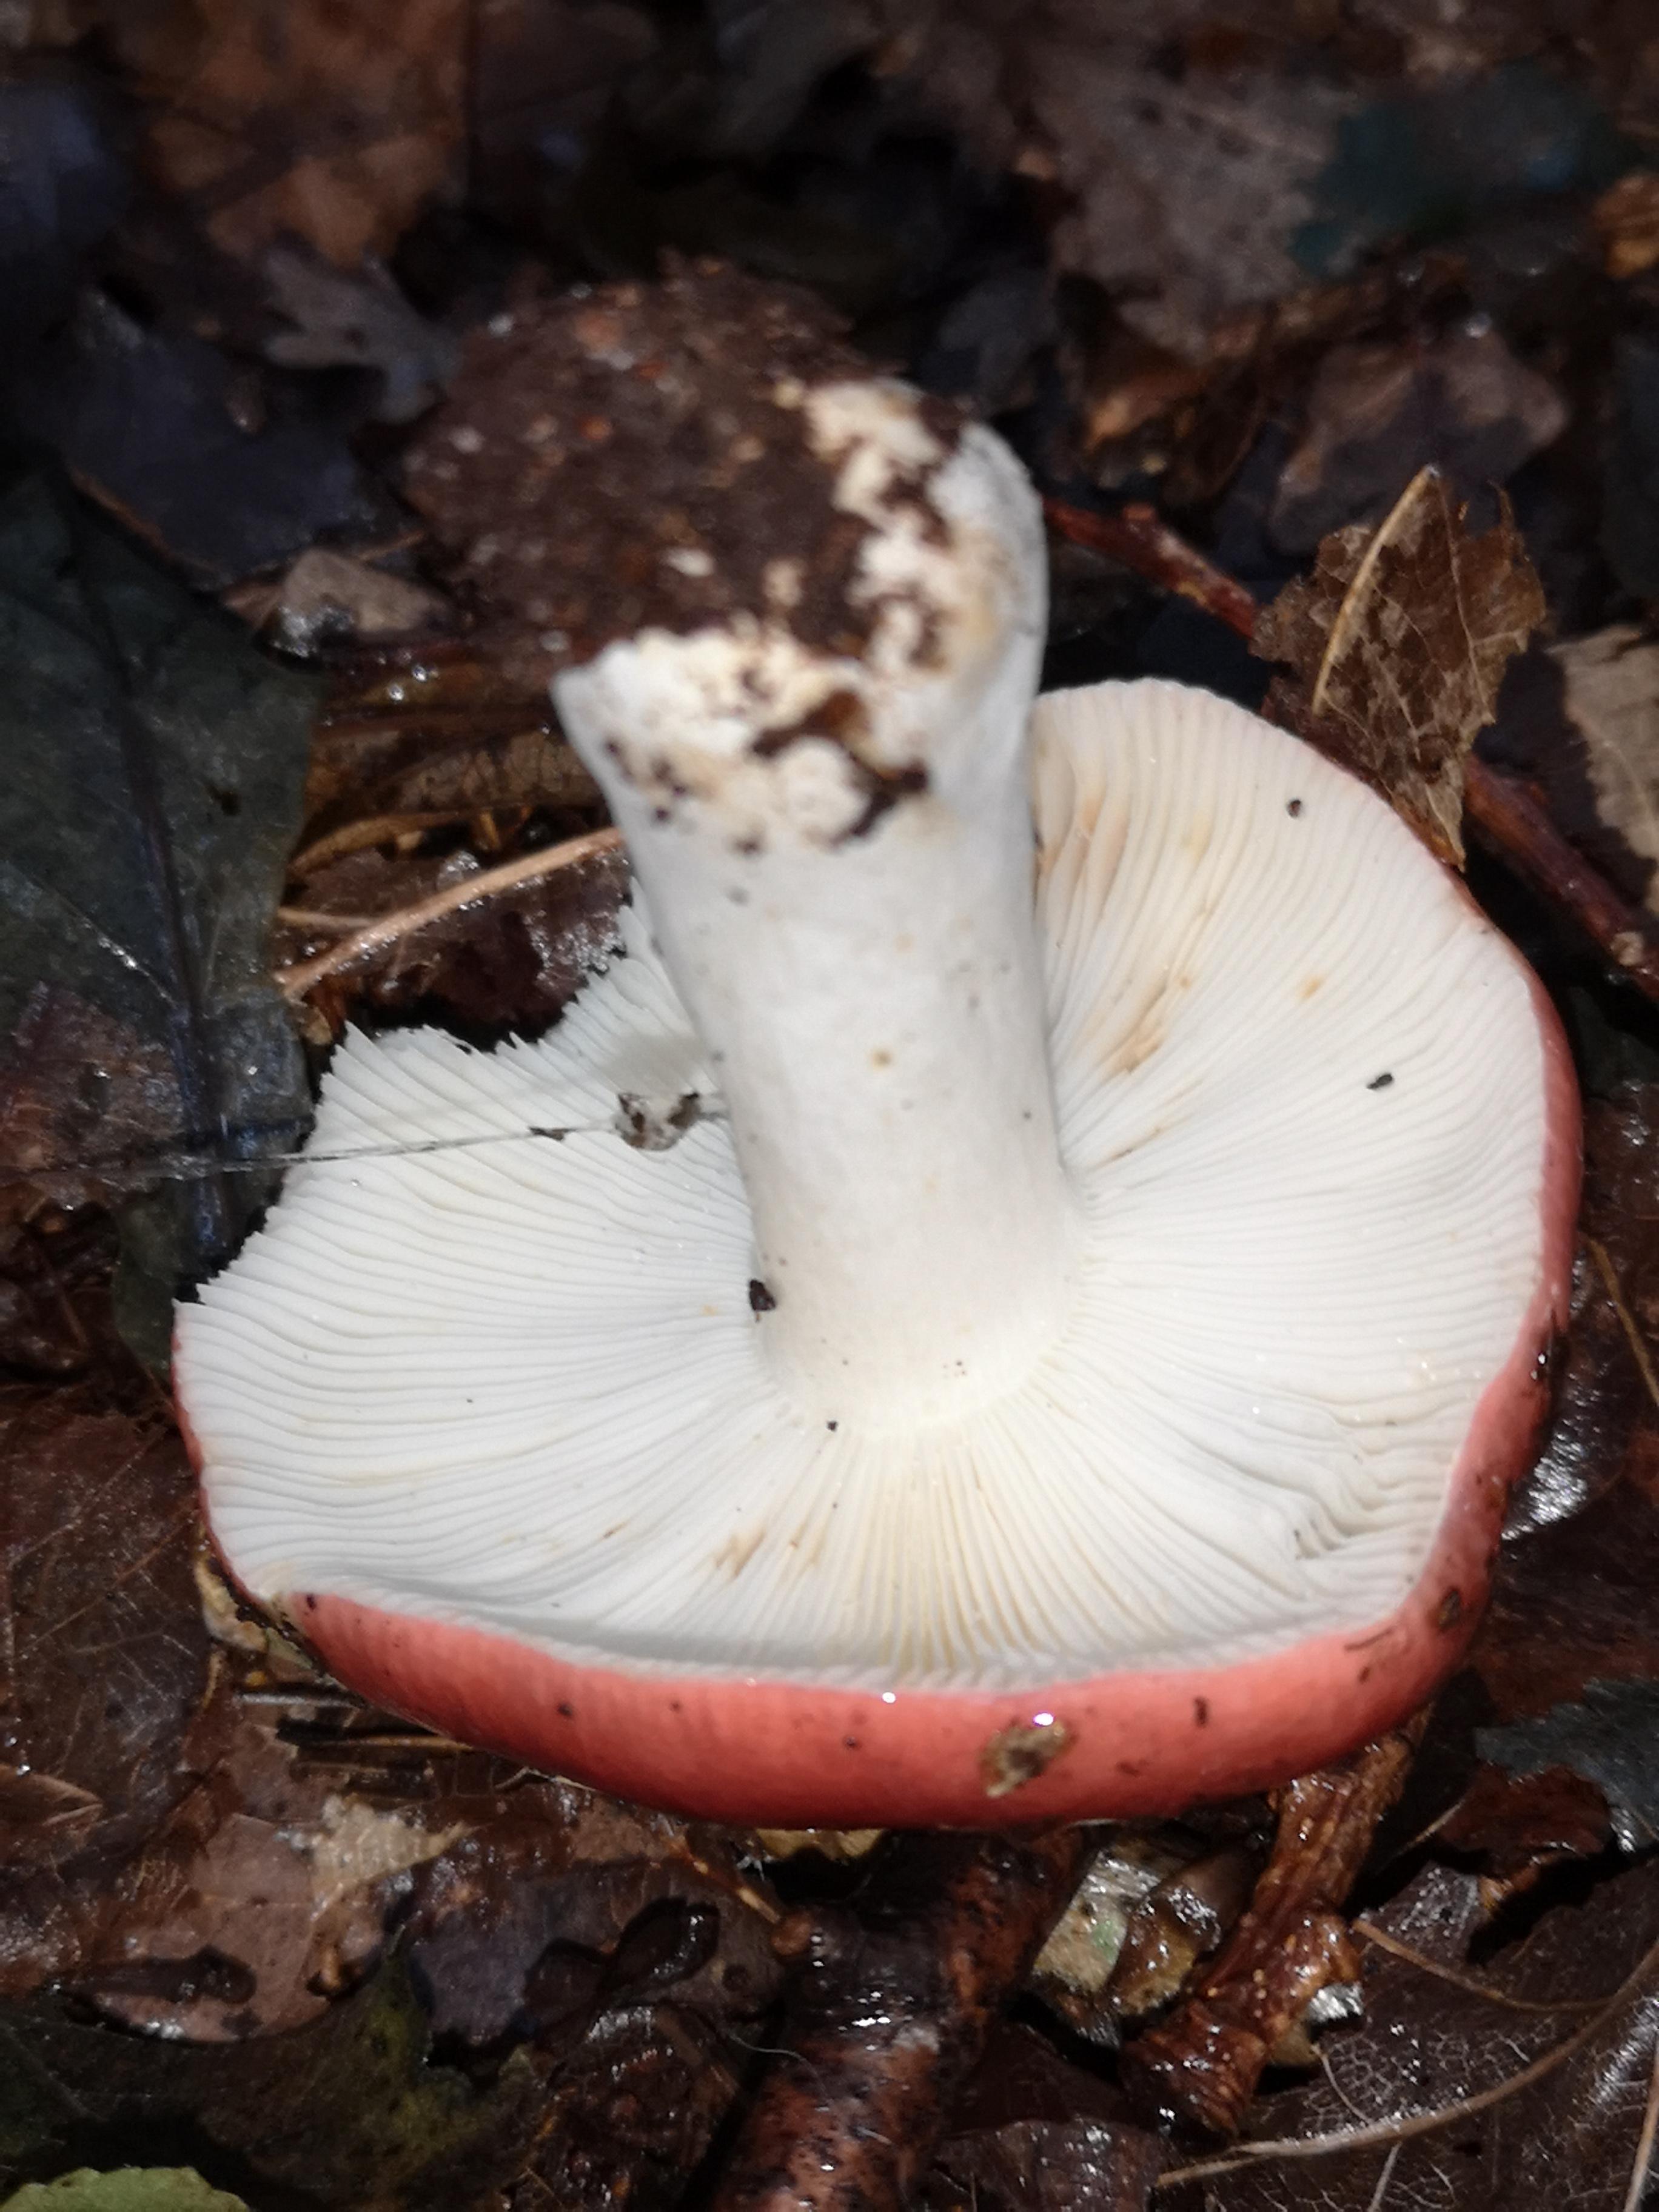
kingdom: Fungi
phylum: Basidiomycota
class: Agaricomycetes
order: Russulales
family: Russulaceae
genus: Russula
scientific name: Russula
